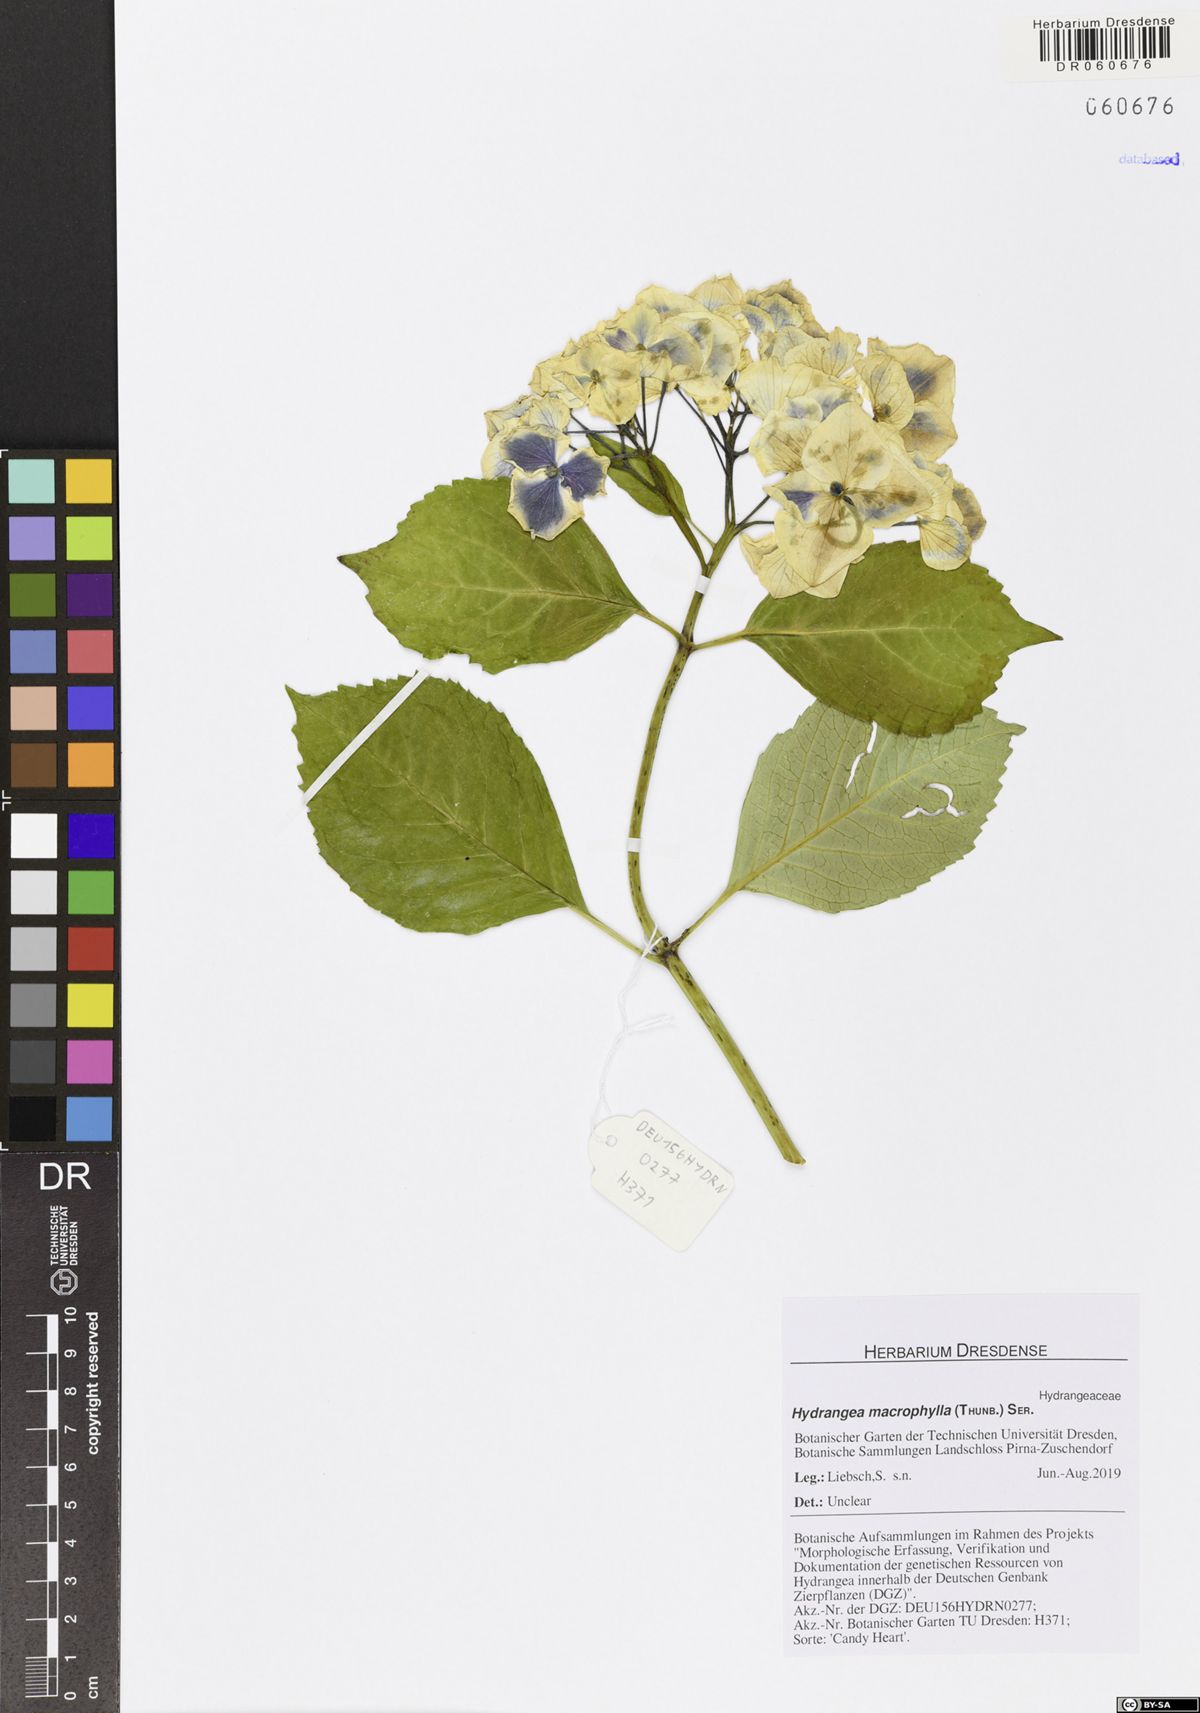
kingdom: Plantae
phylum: Tracheophyta
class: Magnoliopsida
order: Cornales
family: Hydrangeaceae
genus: Hydrangea
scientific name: Hydrangea macrophylla
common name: Hydrangea
